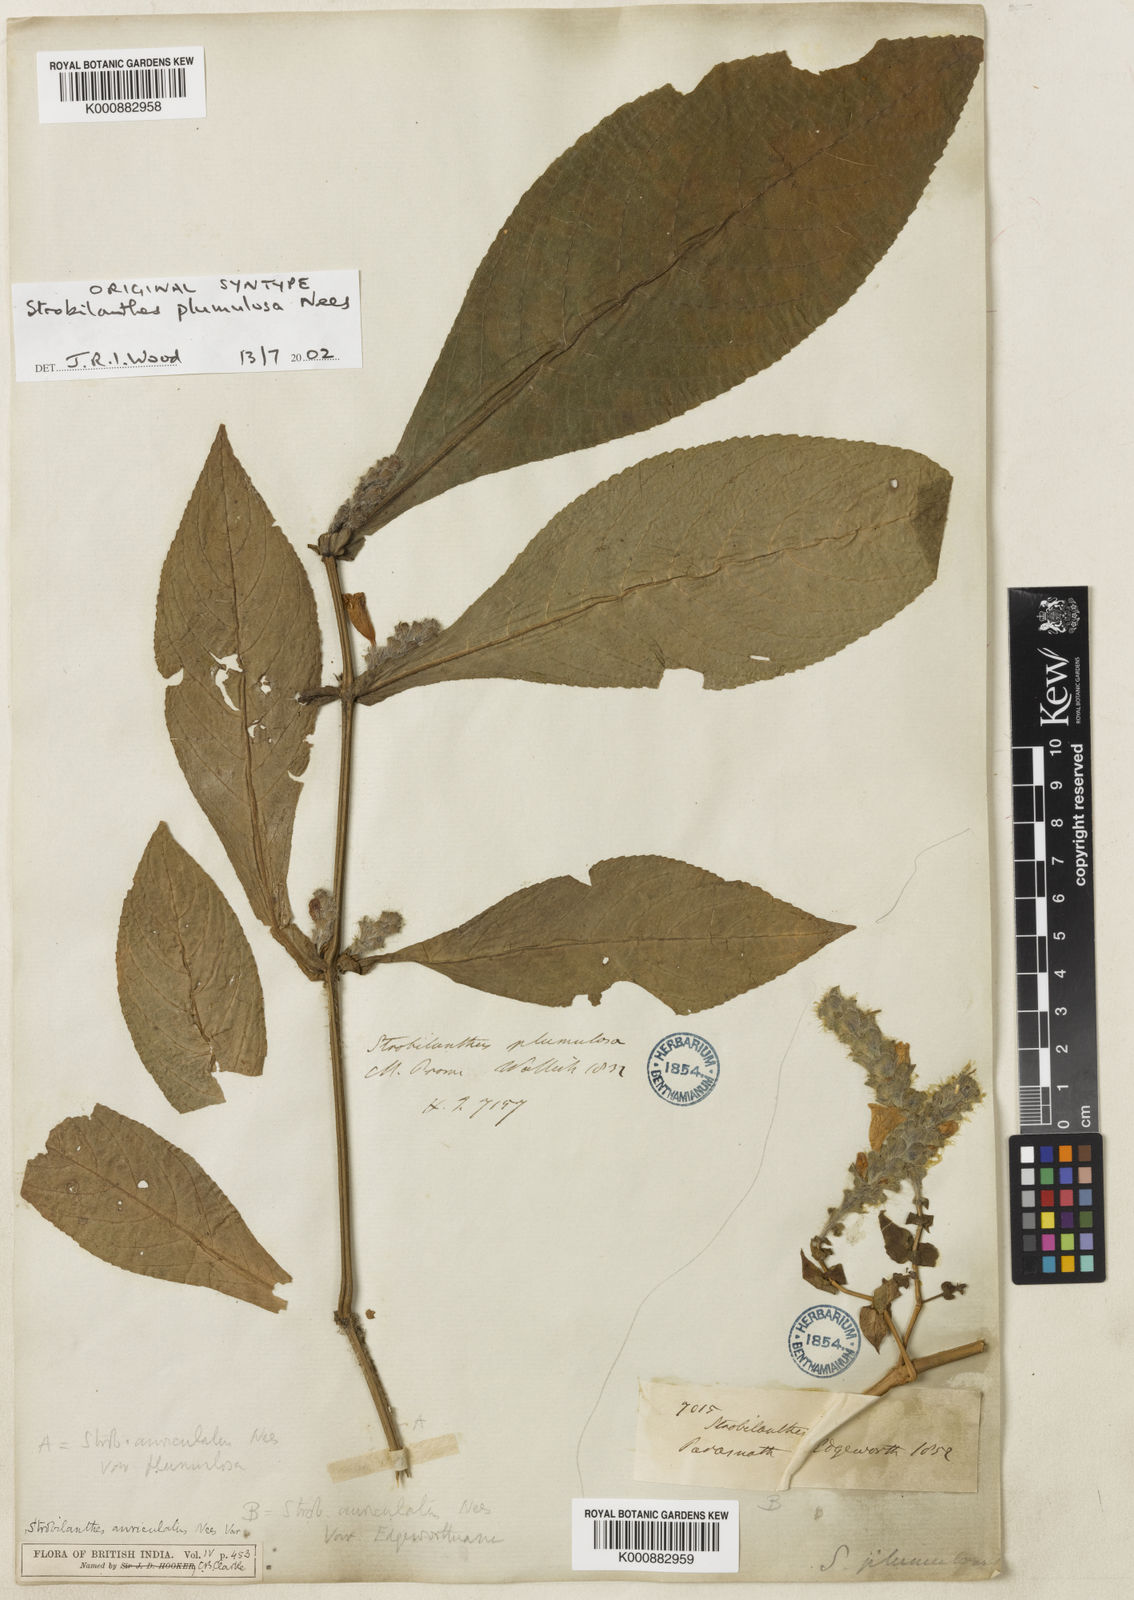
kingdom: Plantae
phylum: Tracheophyta
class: Magnoliopsida
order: Lamiales
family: Acanthaceae
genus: Strobilanthes
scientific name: Strobilanthes auriculata
